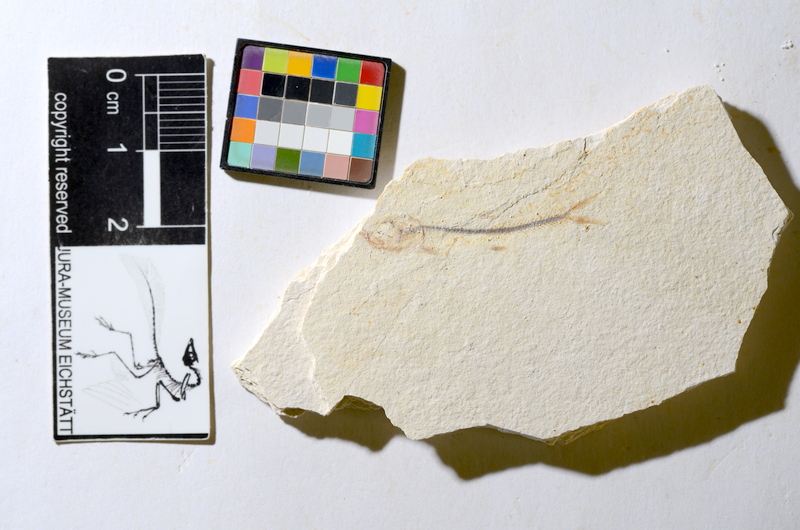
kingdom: Animalia
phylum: Chordata
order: Salmoniformes
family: Orthogonikleithridae
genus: Orthogonikleithrus
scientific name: Orthogonikleithrus hoelli
